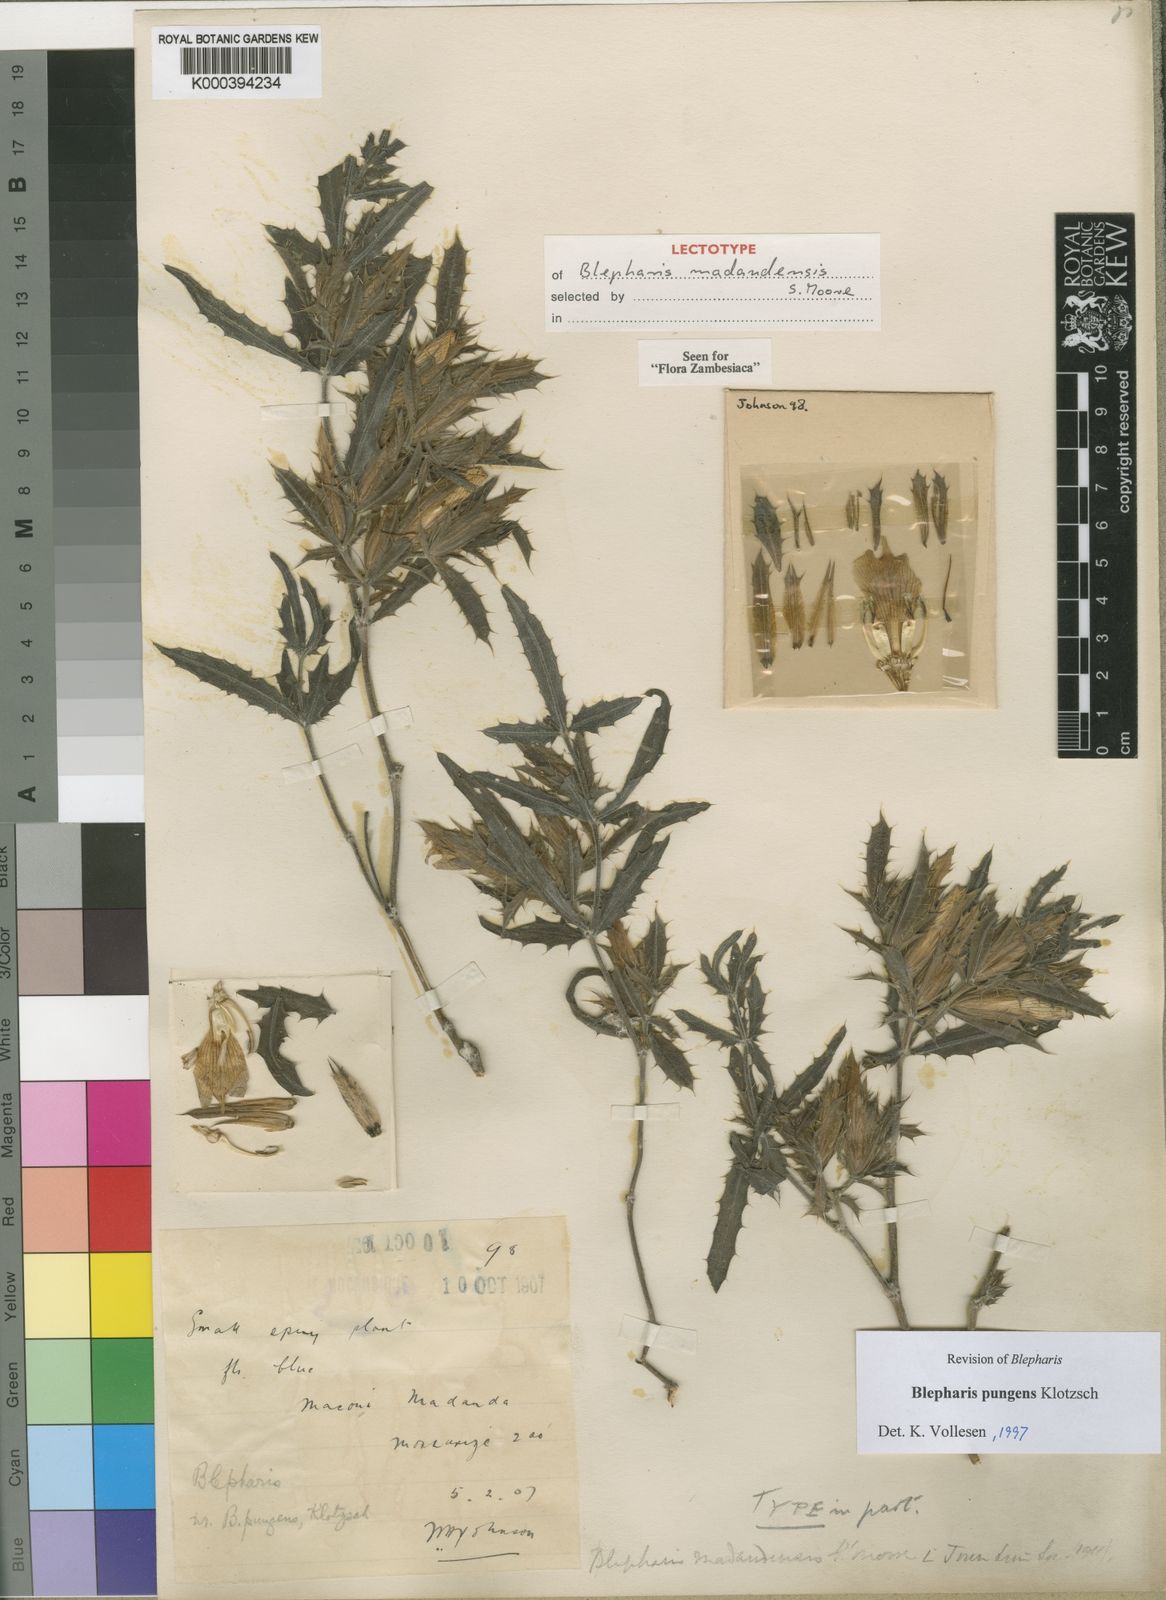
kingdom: Plantae
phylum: Tracheophyta
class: Magnoliopsida
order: Lamiales
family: Acanthaceae
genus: Blepharis
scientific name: Blepharis pungens
